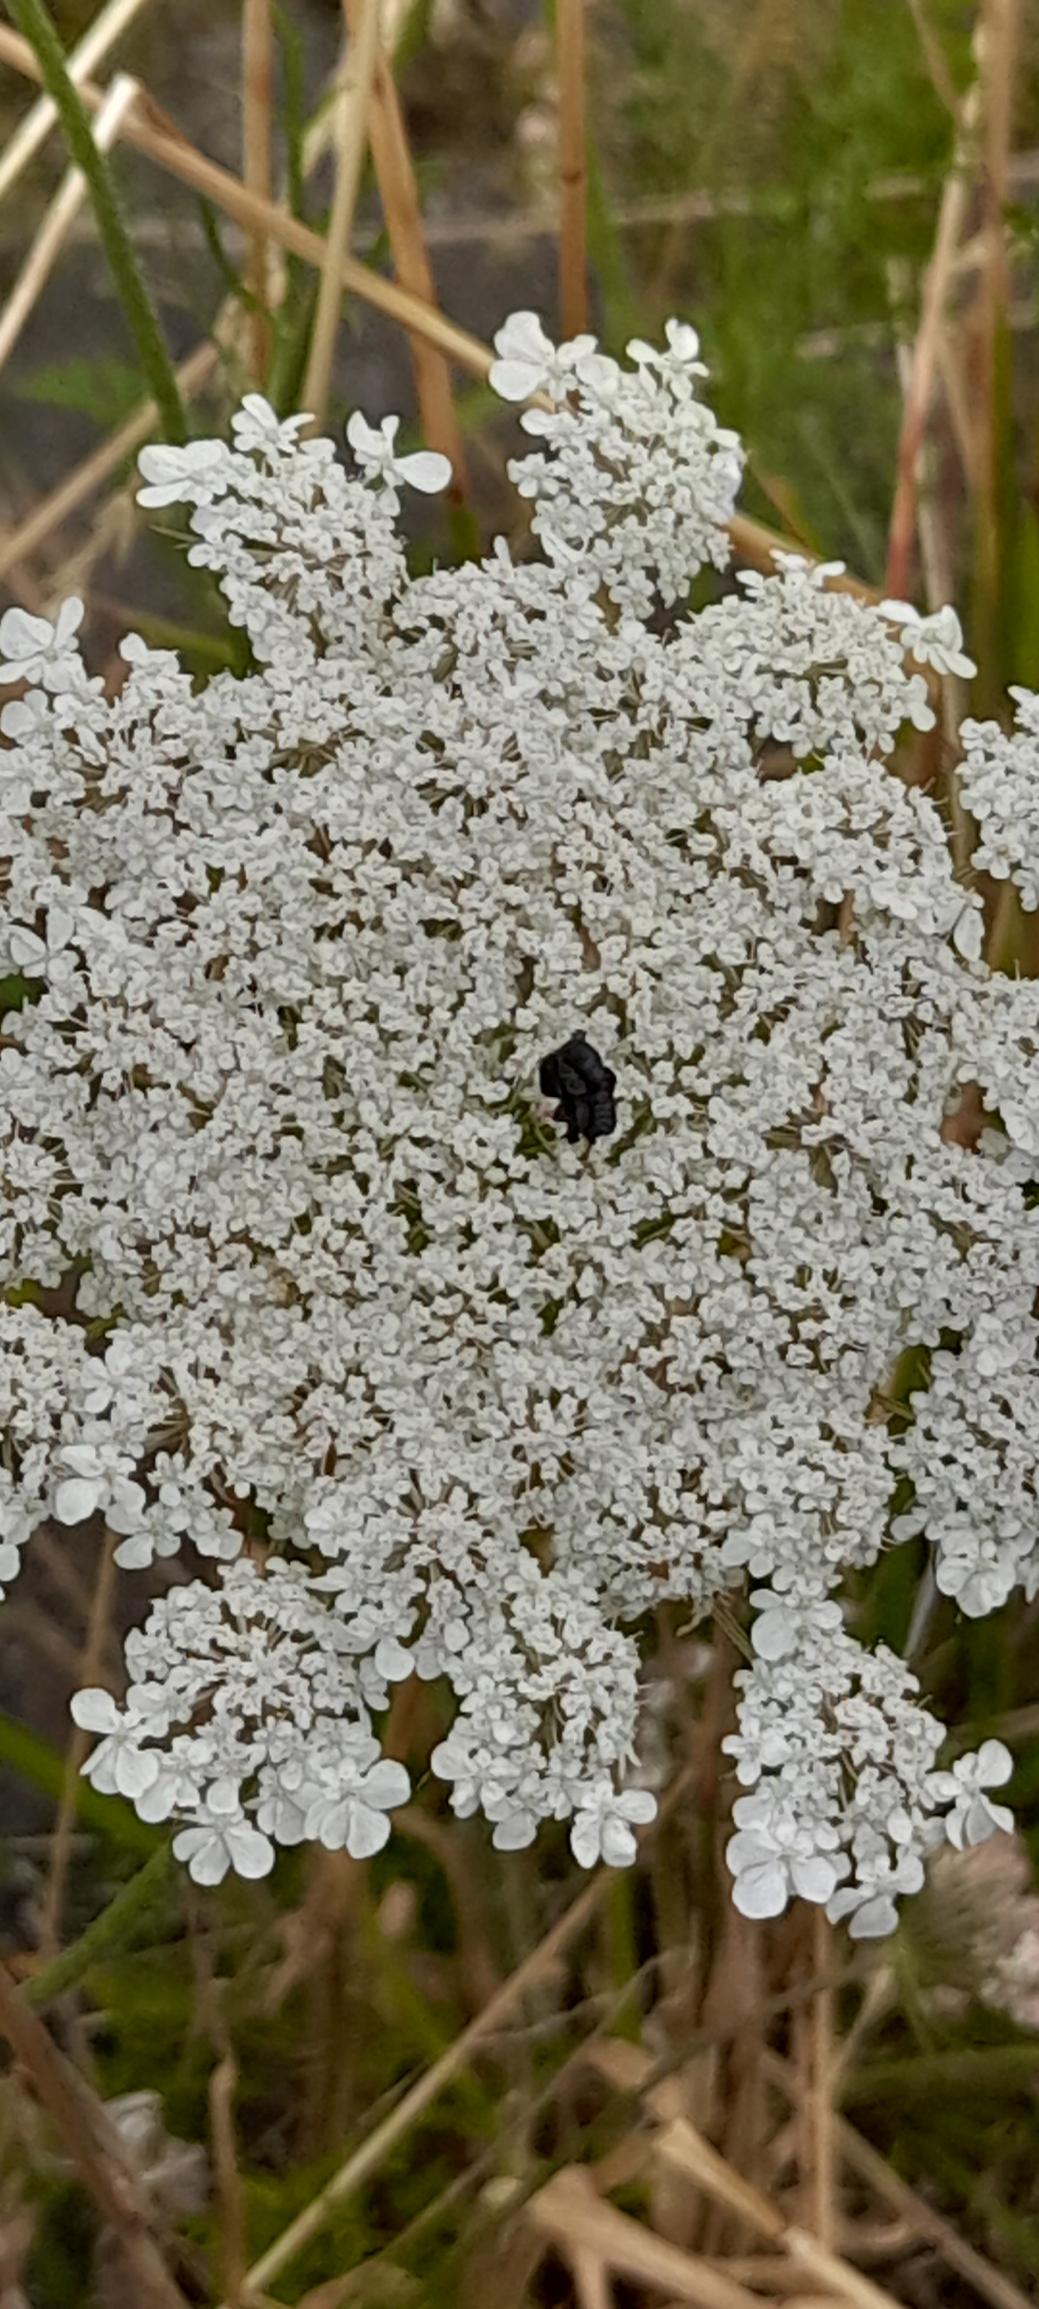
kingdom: Plantae
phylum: Tracheophyta
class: Magnoliopsida
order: Apiales
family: Apiaceae
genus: Daucus
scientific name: Daucus carota
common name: Gulerod
